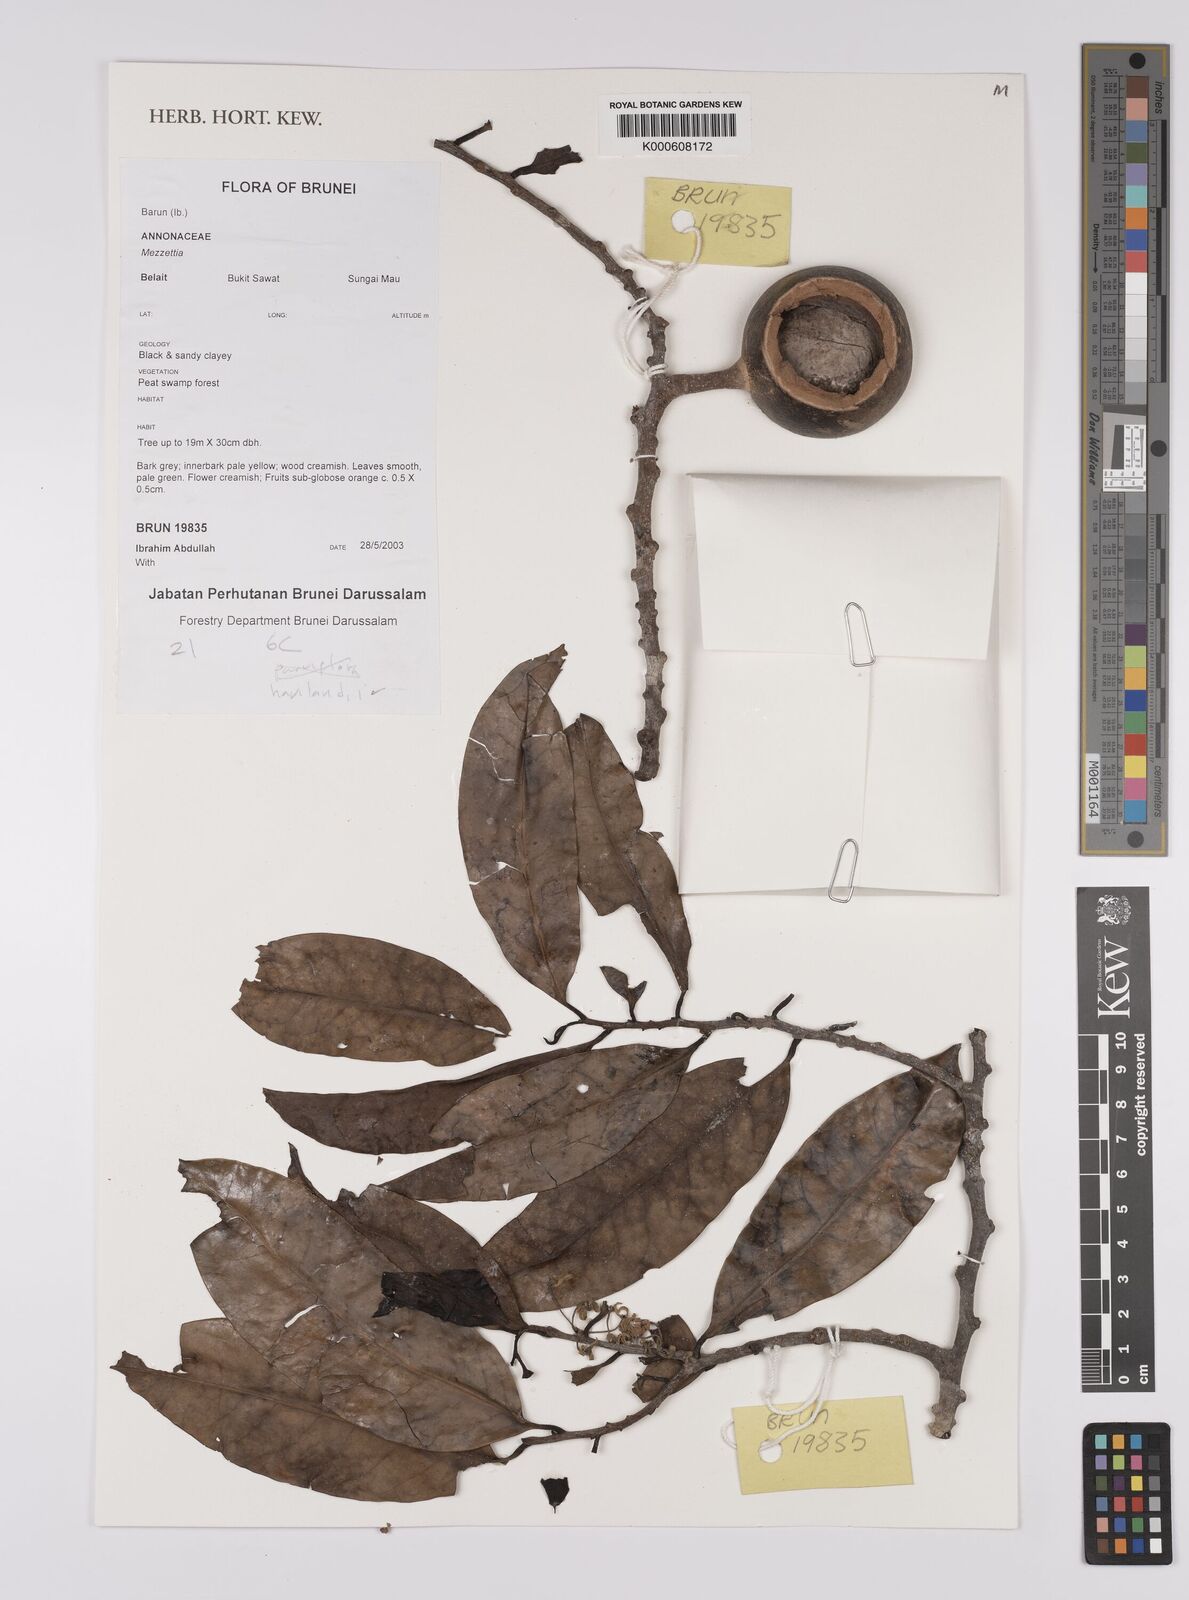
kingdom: Plantae
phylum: Tracheophyta
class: Magnoliopsida
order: Magnoliales
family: Annonaceae
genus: Mezzettia
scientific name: Mezzettia havilandii
